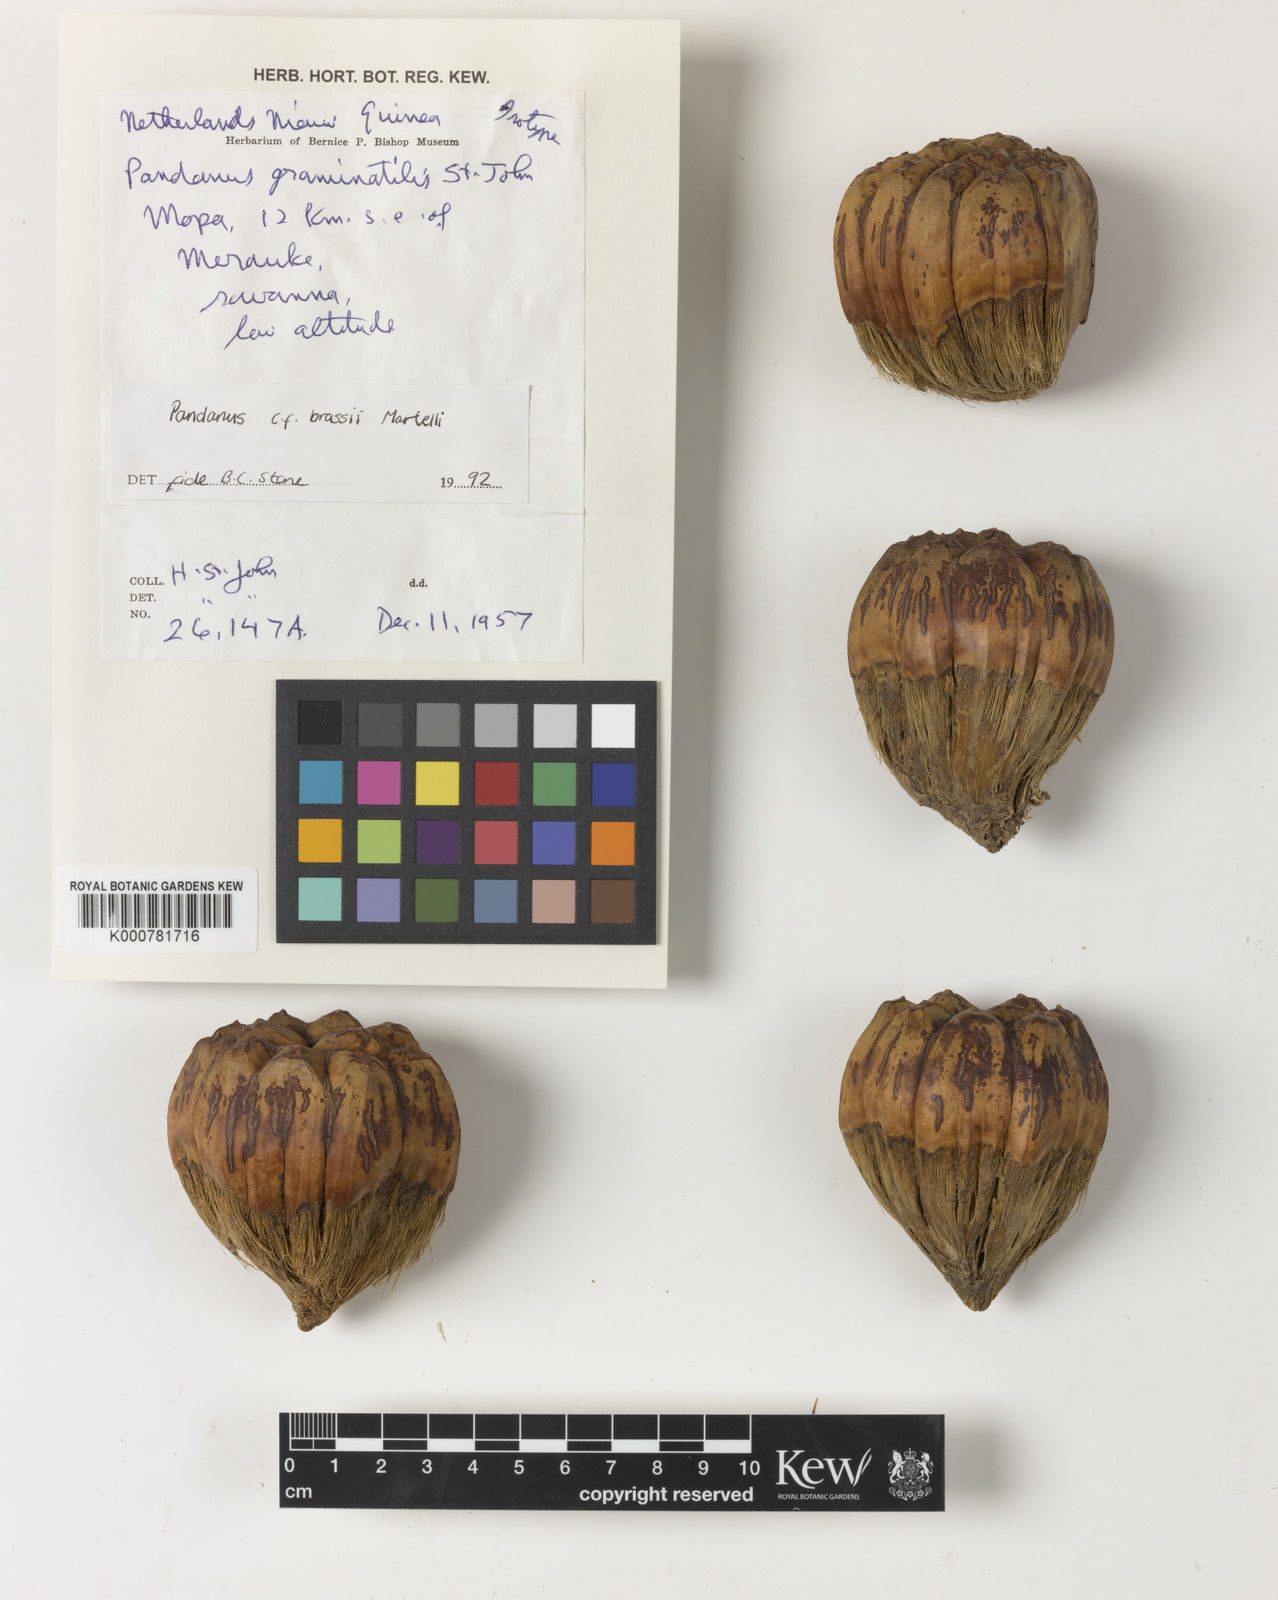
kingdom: Plantae
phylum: Tracheophyta
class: Liliopsida
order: Pandanales
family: Pandanaceae
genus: Pandanus
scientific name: Pandanus brassii
